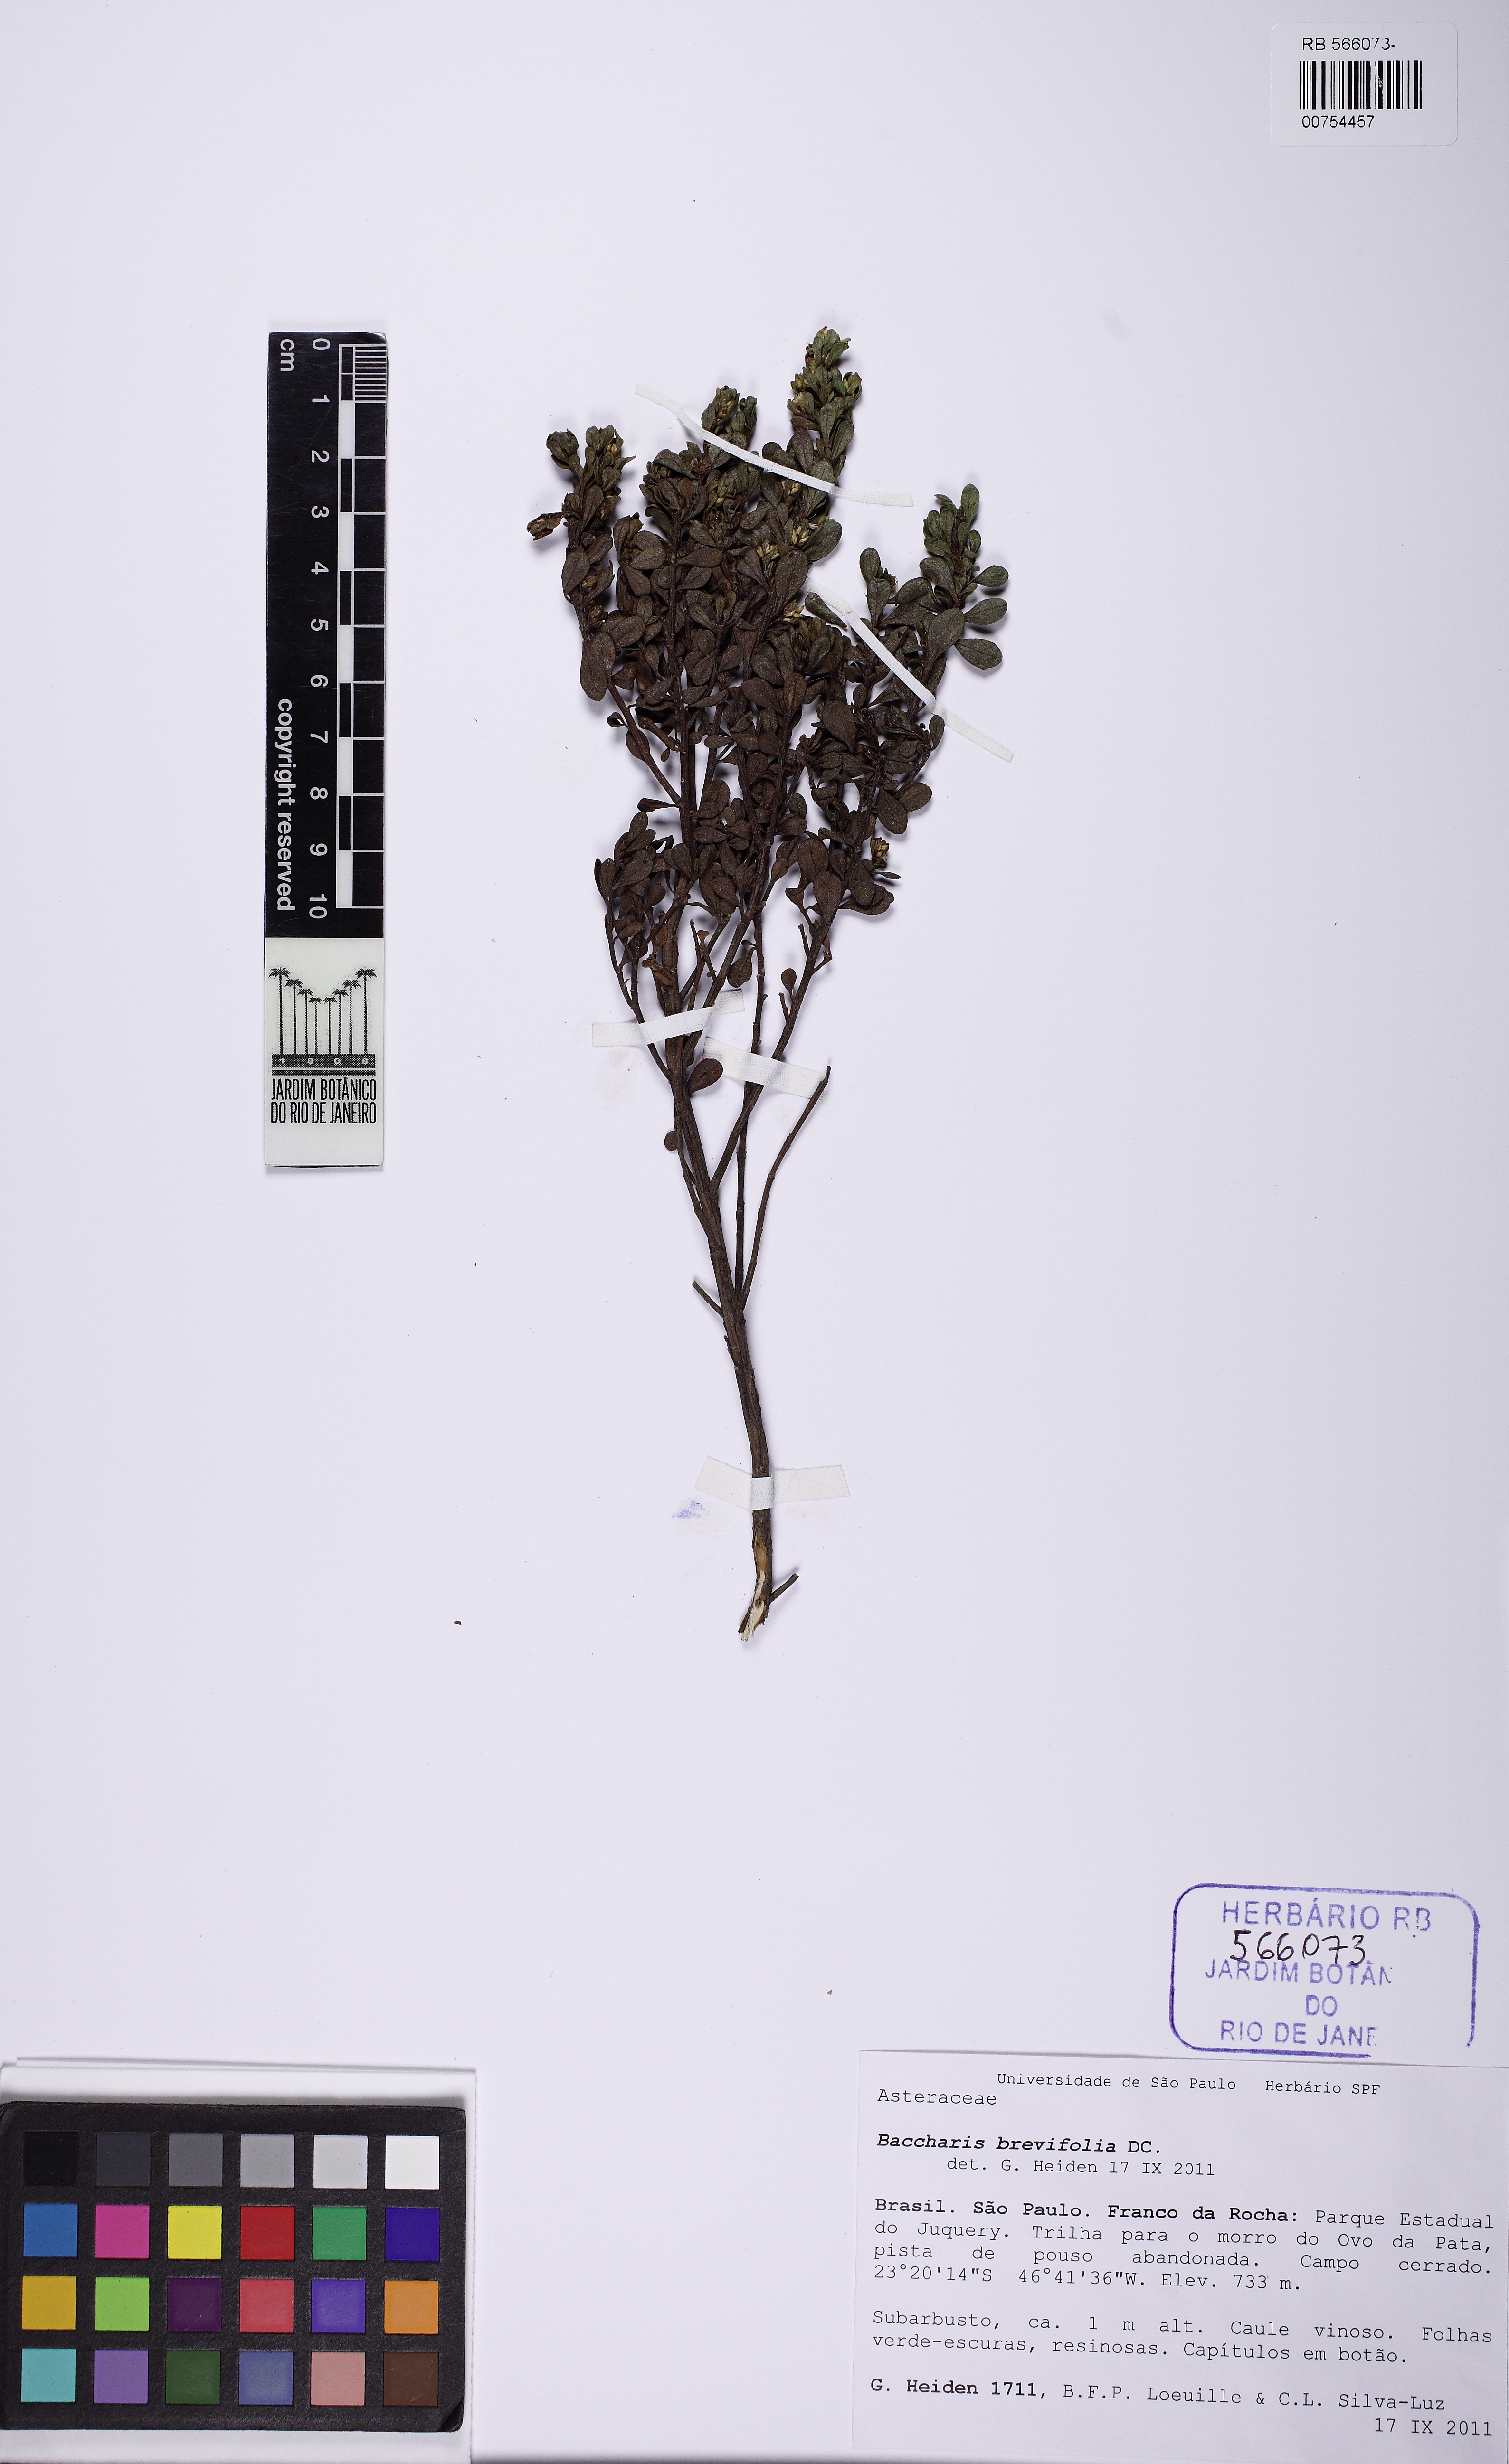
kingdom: Plantae
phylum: Tracheophyta
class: Magnoliopsida
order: Asterales
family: Asteraceae
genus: Baccharis
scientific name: Baccharis brevifolia
